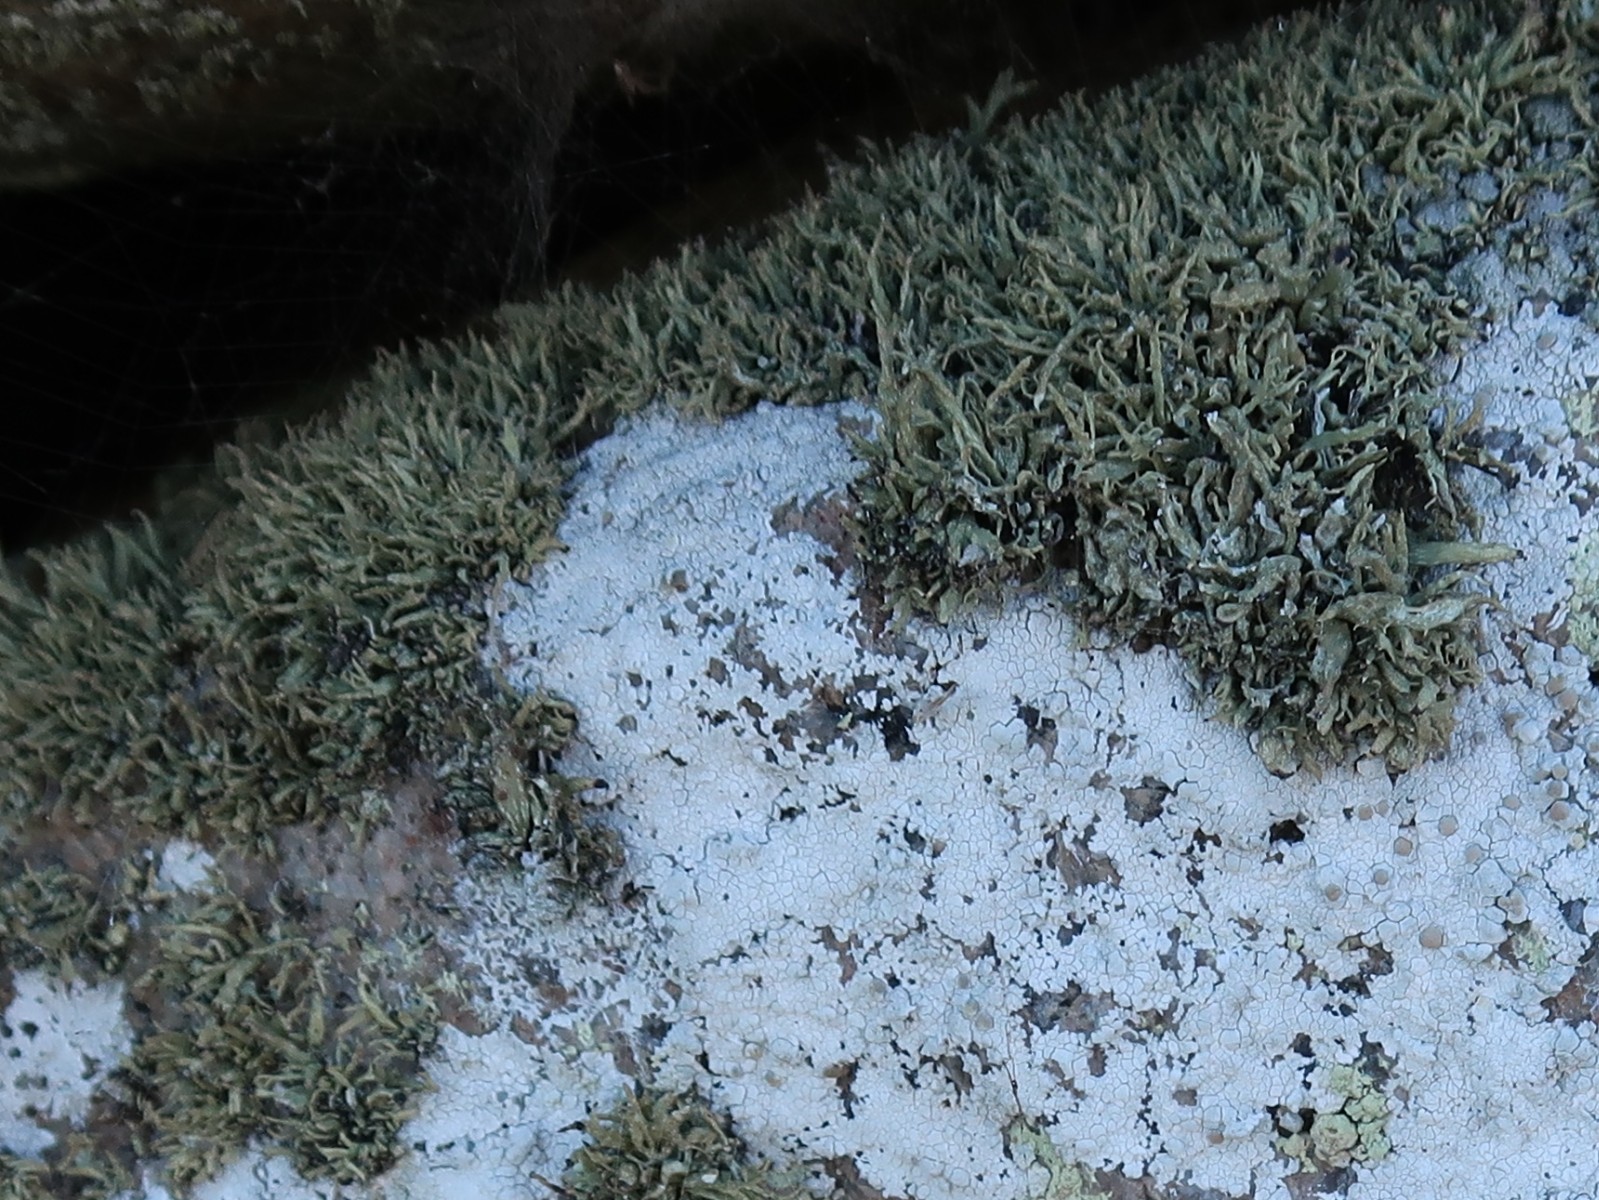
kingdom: Fungi
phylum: Ascomycota
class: Lecanoromycetes
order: Lecanorales
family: Ramalinaceae
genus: Ramalina
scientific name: Ramalina siliquosa
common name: klippe-grenlav
